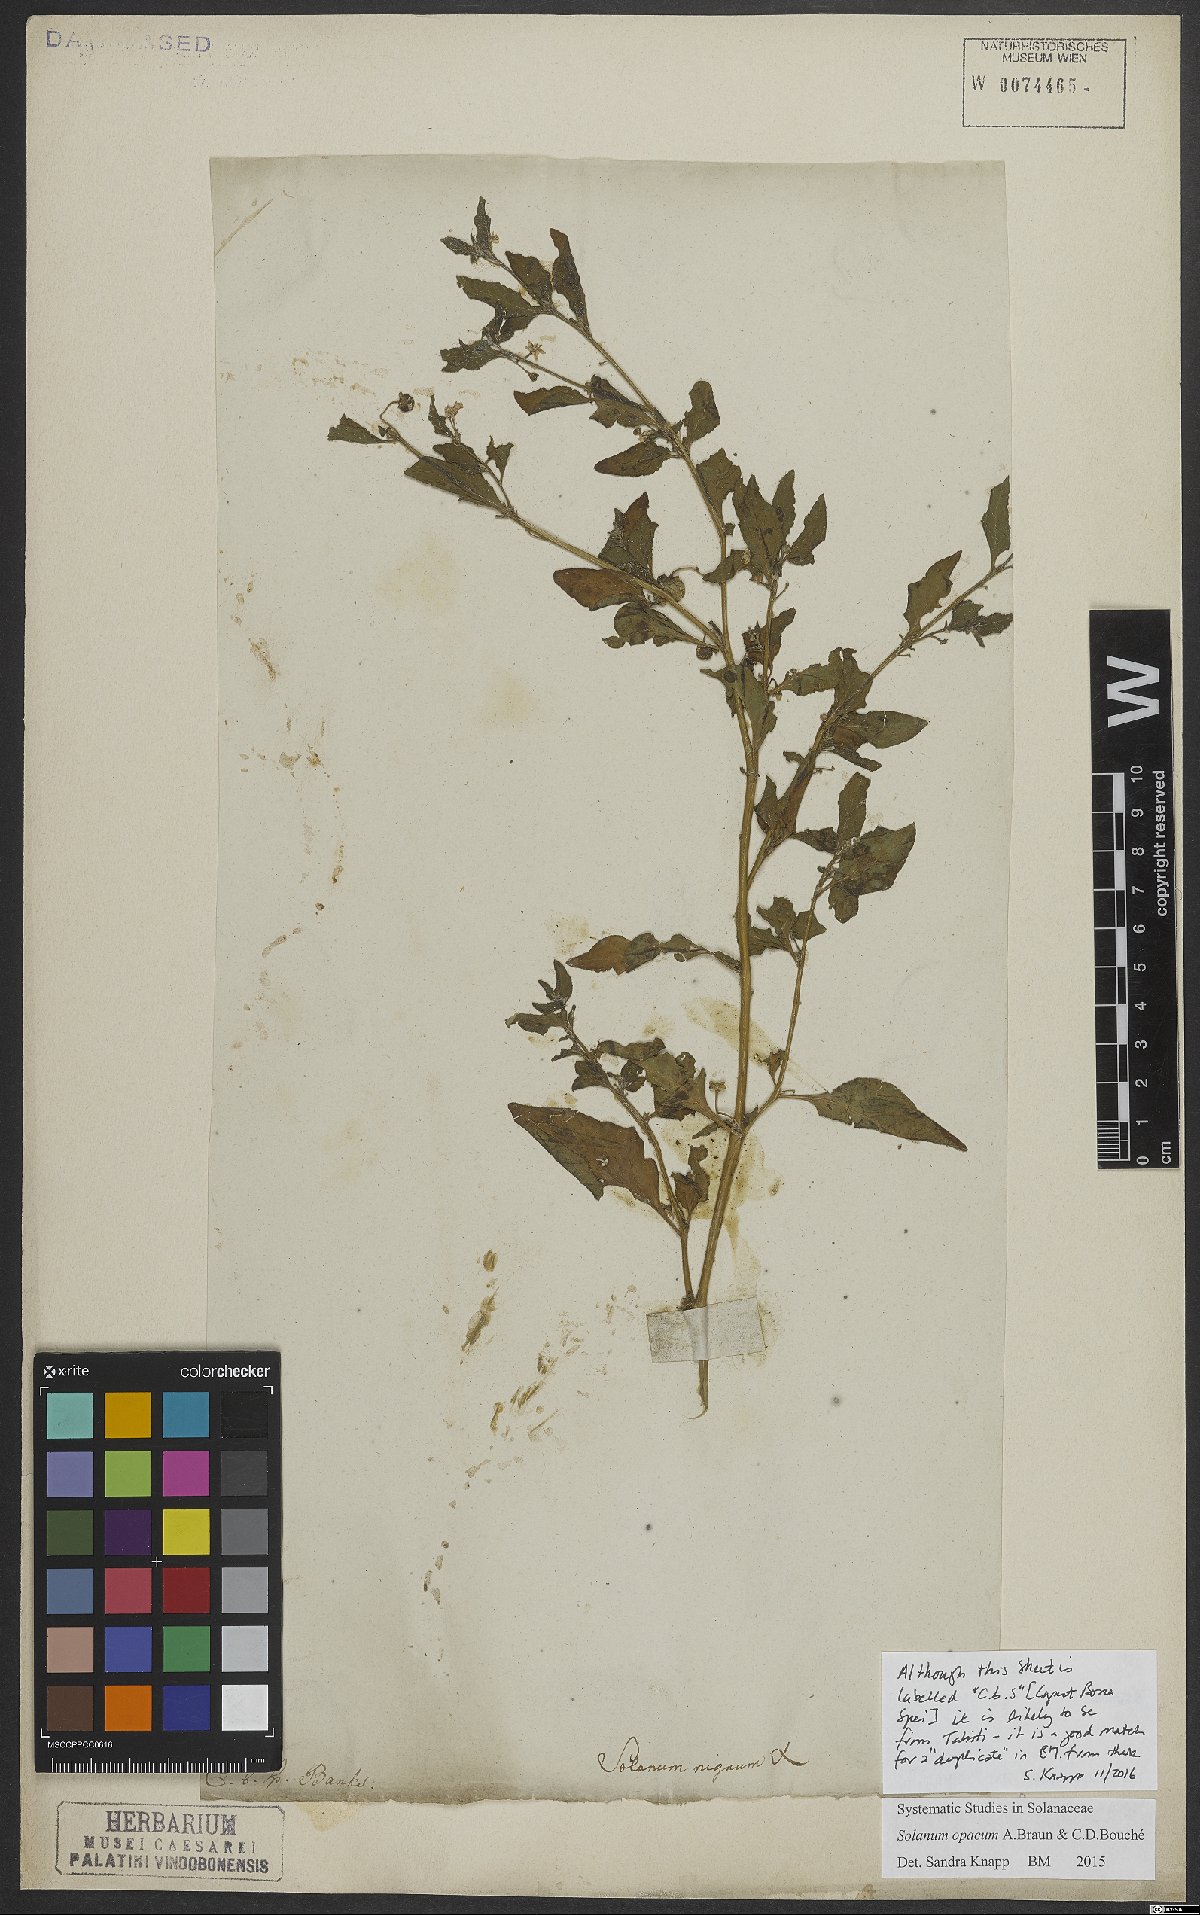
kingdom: Plantae
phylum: Tracheophyta
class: Magnoliopsida
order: Solanales
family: Solanaceae
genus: Solanum
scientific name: Solanum opacum
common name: Green-berry nightshade
